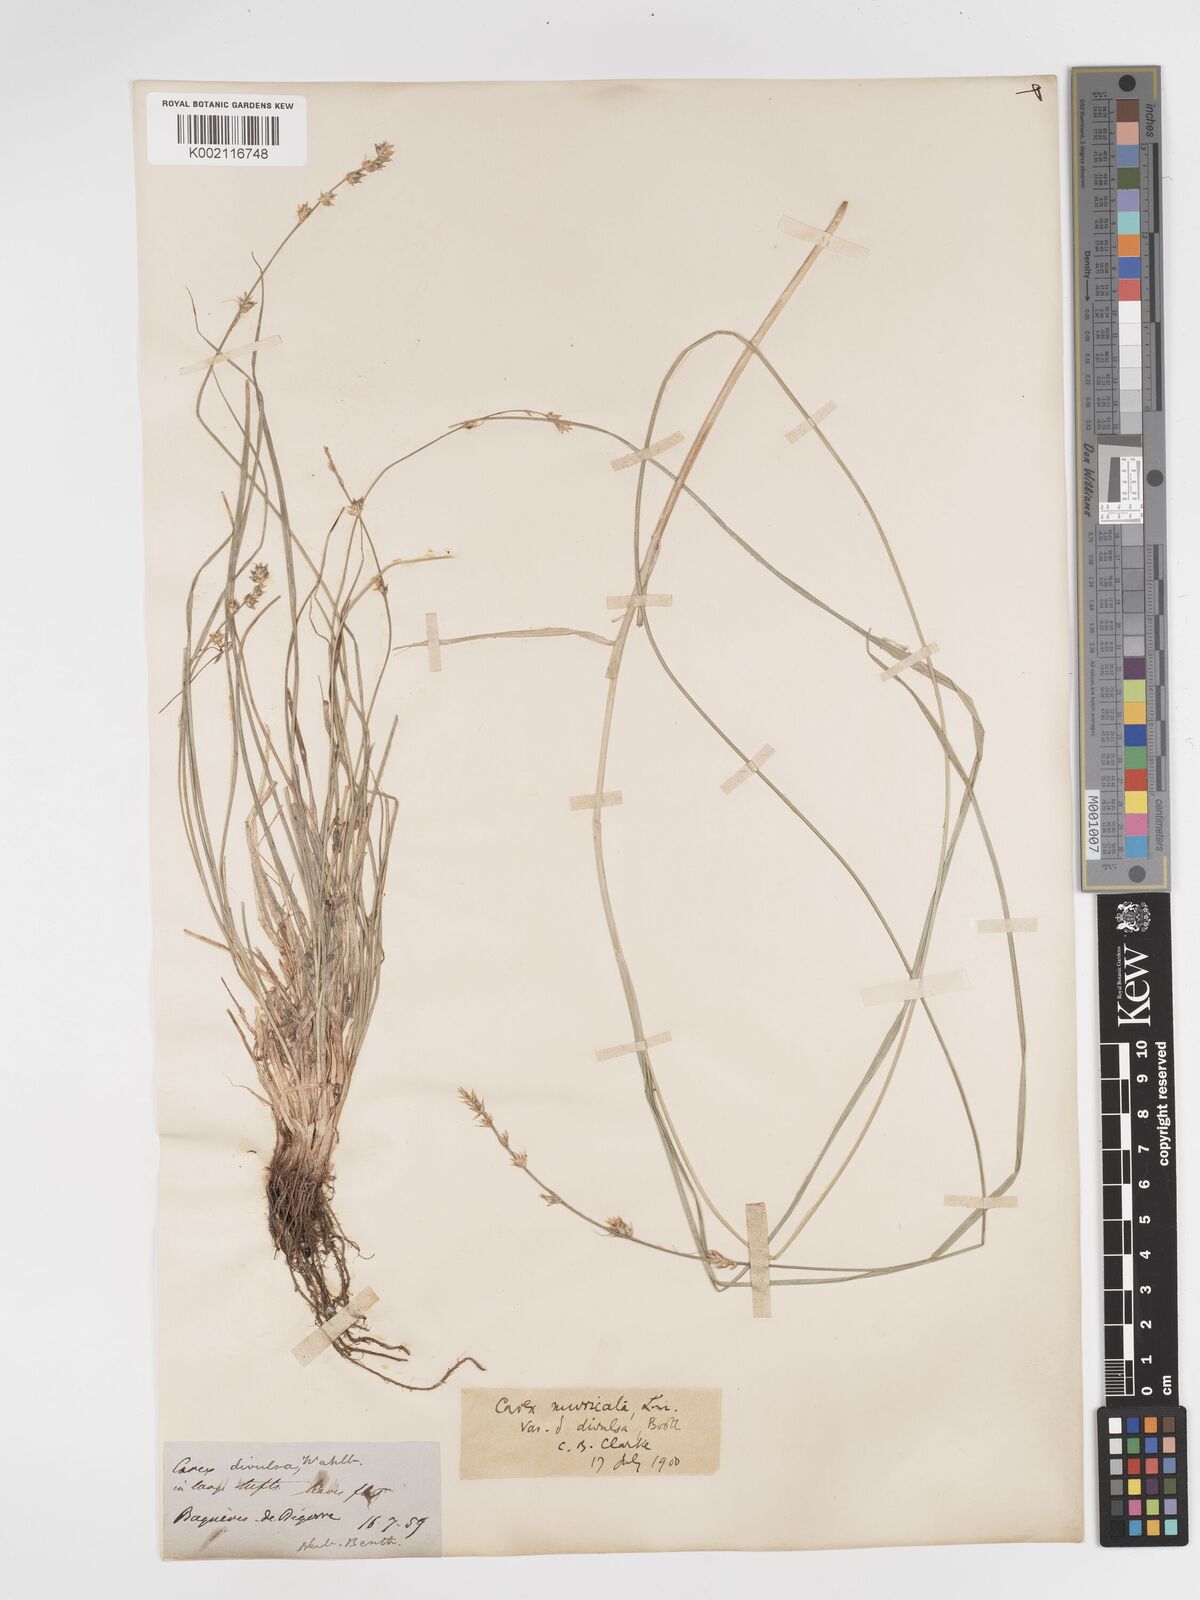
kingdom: Plantae
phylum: Tracheophyta
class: Liliopsida
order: Poales
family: Cyperaceae
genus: Carex
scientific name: Carex divulsa
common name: Grassland sedge
